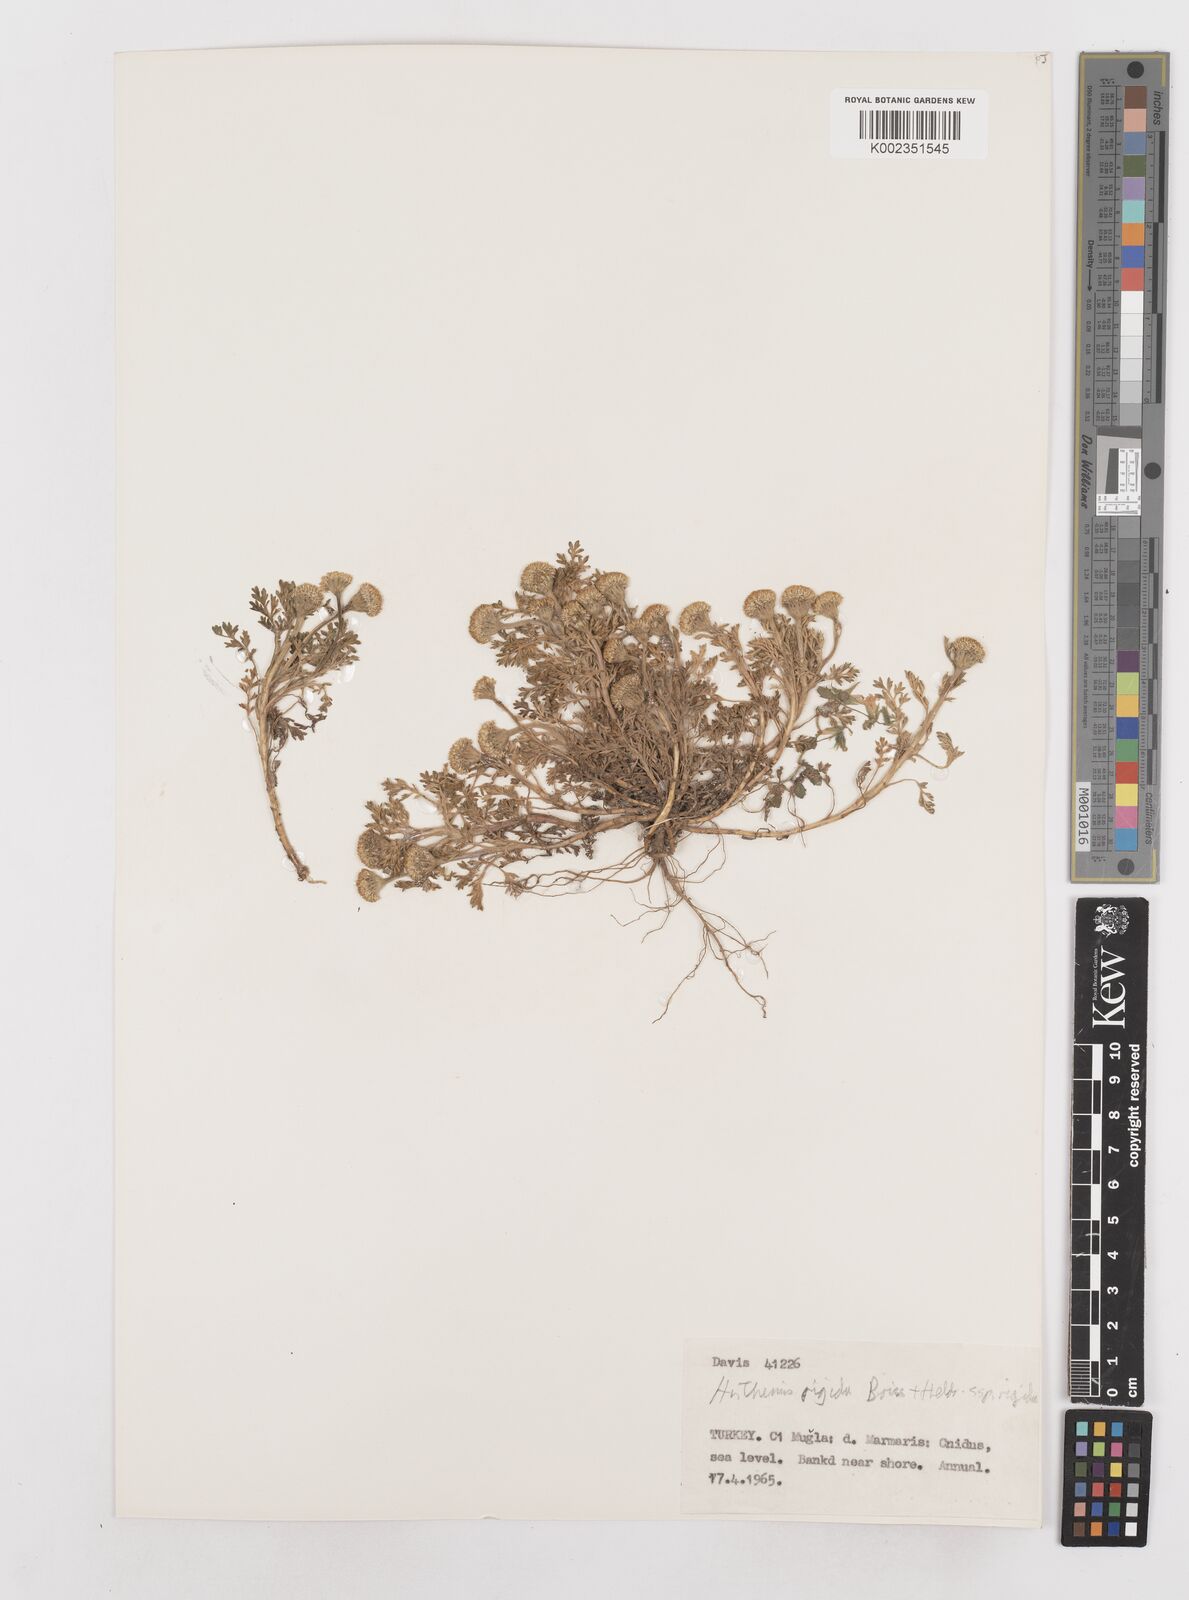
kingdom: Plantae
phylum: Tracheophyta
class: Magnoliopsida
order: Asterales
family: Asteraceae
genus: Anthemis
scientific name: Anthemis rigida
